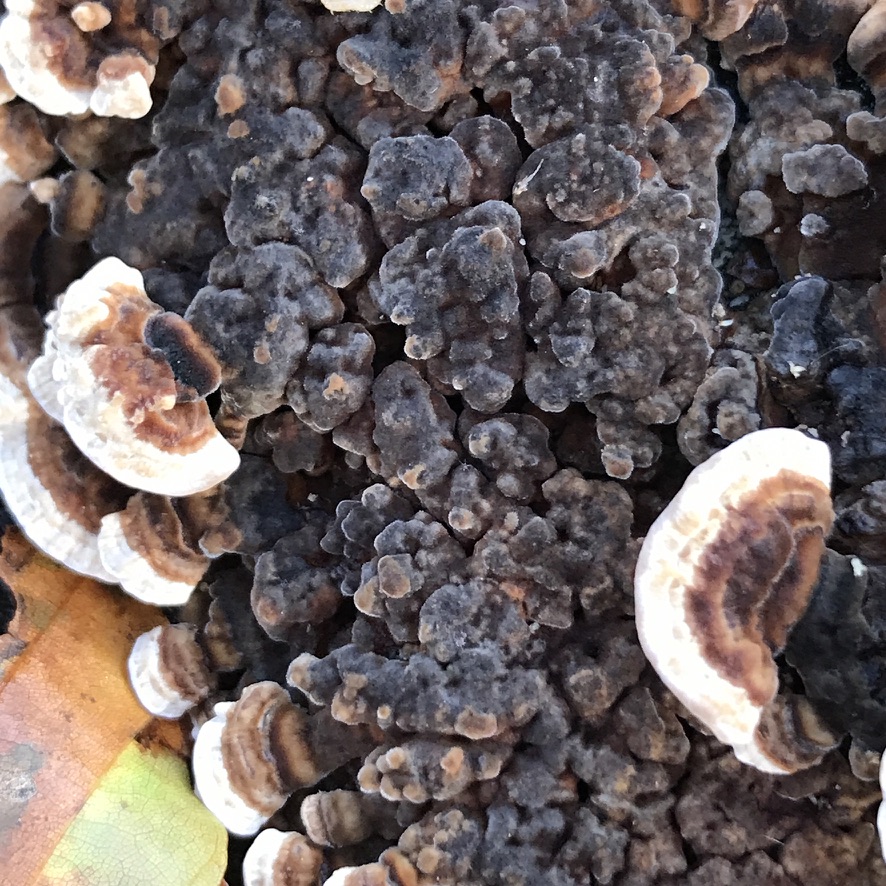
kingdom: Fungi
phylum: Basidiomycota
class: Agaricomycetes
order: Polyporales
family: Polyporaceae
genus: Trametes
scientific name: Trametes versicolor
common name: broget læderporesvamp
